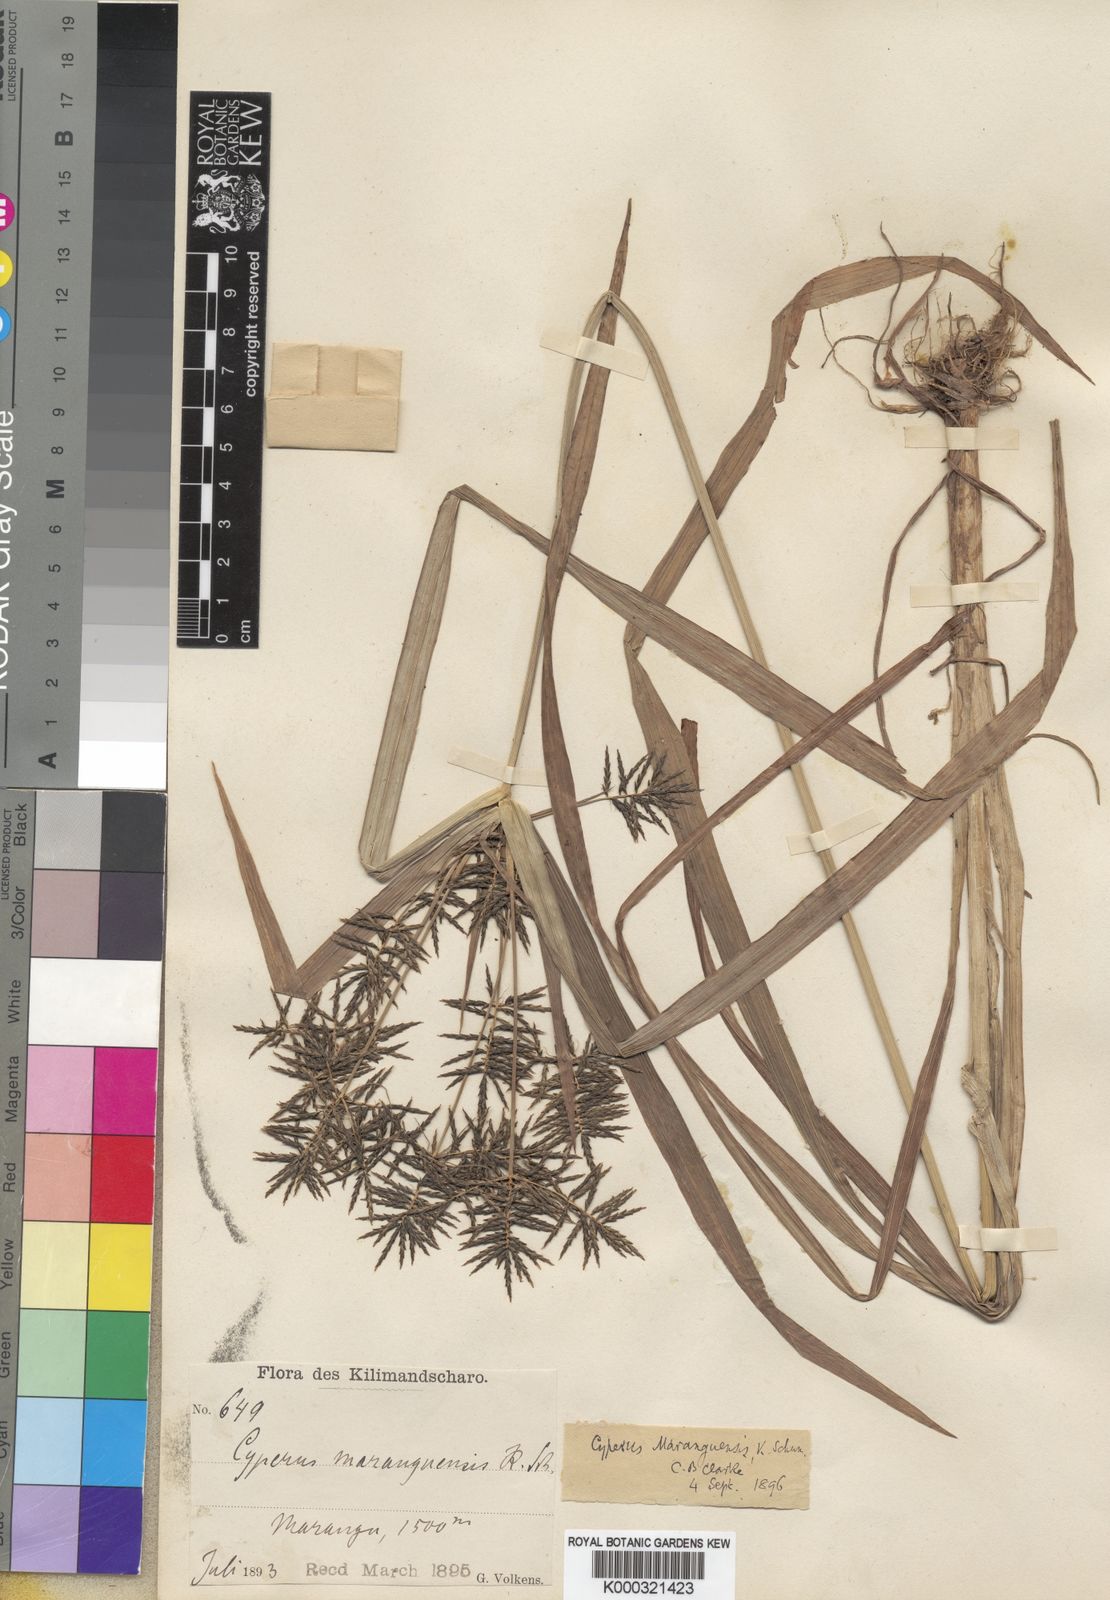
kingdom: Plantae
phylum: Tracheophyta
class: Liliopsida
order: Poales
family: Cyperaceae
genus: Cyperus
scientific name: Cyperus maranguensis
